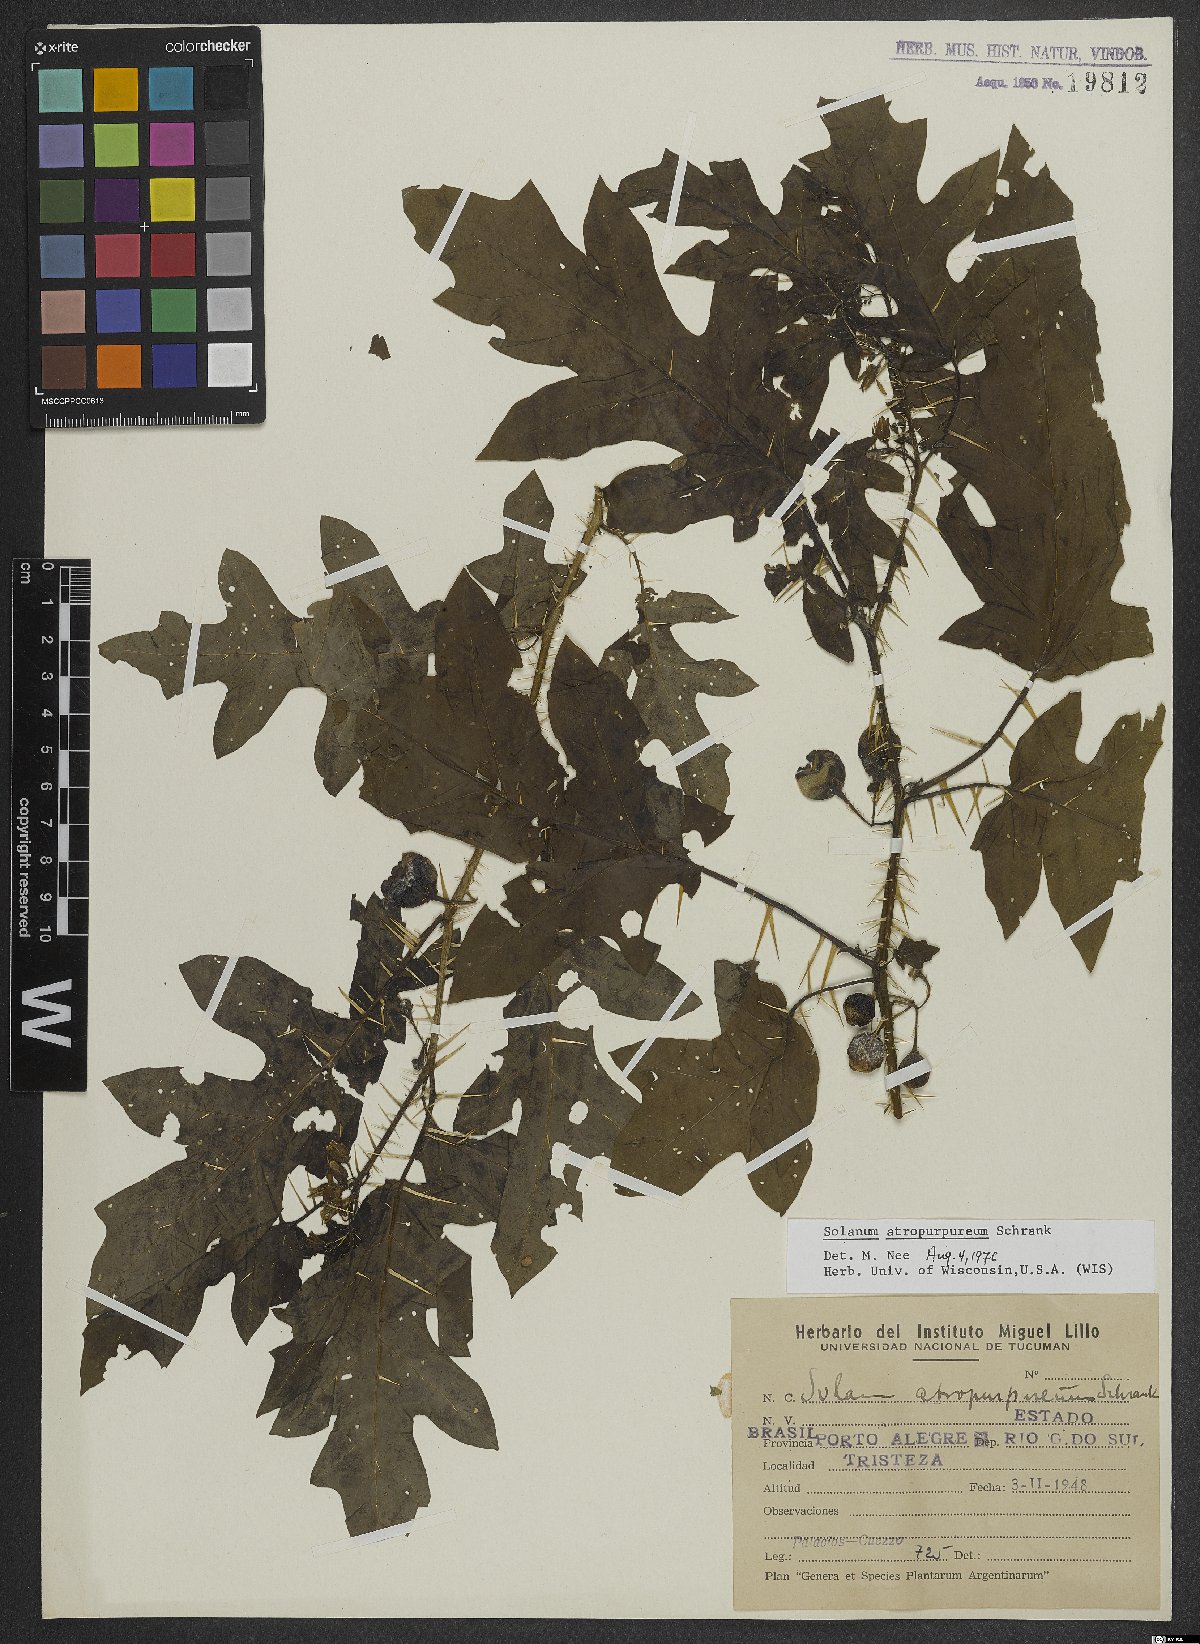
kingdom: Plantae
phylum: Tracheophyta
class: Magnoliopsida
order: Solanales
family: Solanaceae
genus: Solanum
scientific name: Solanum atropurpureum
